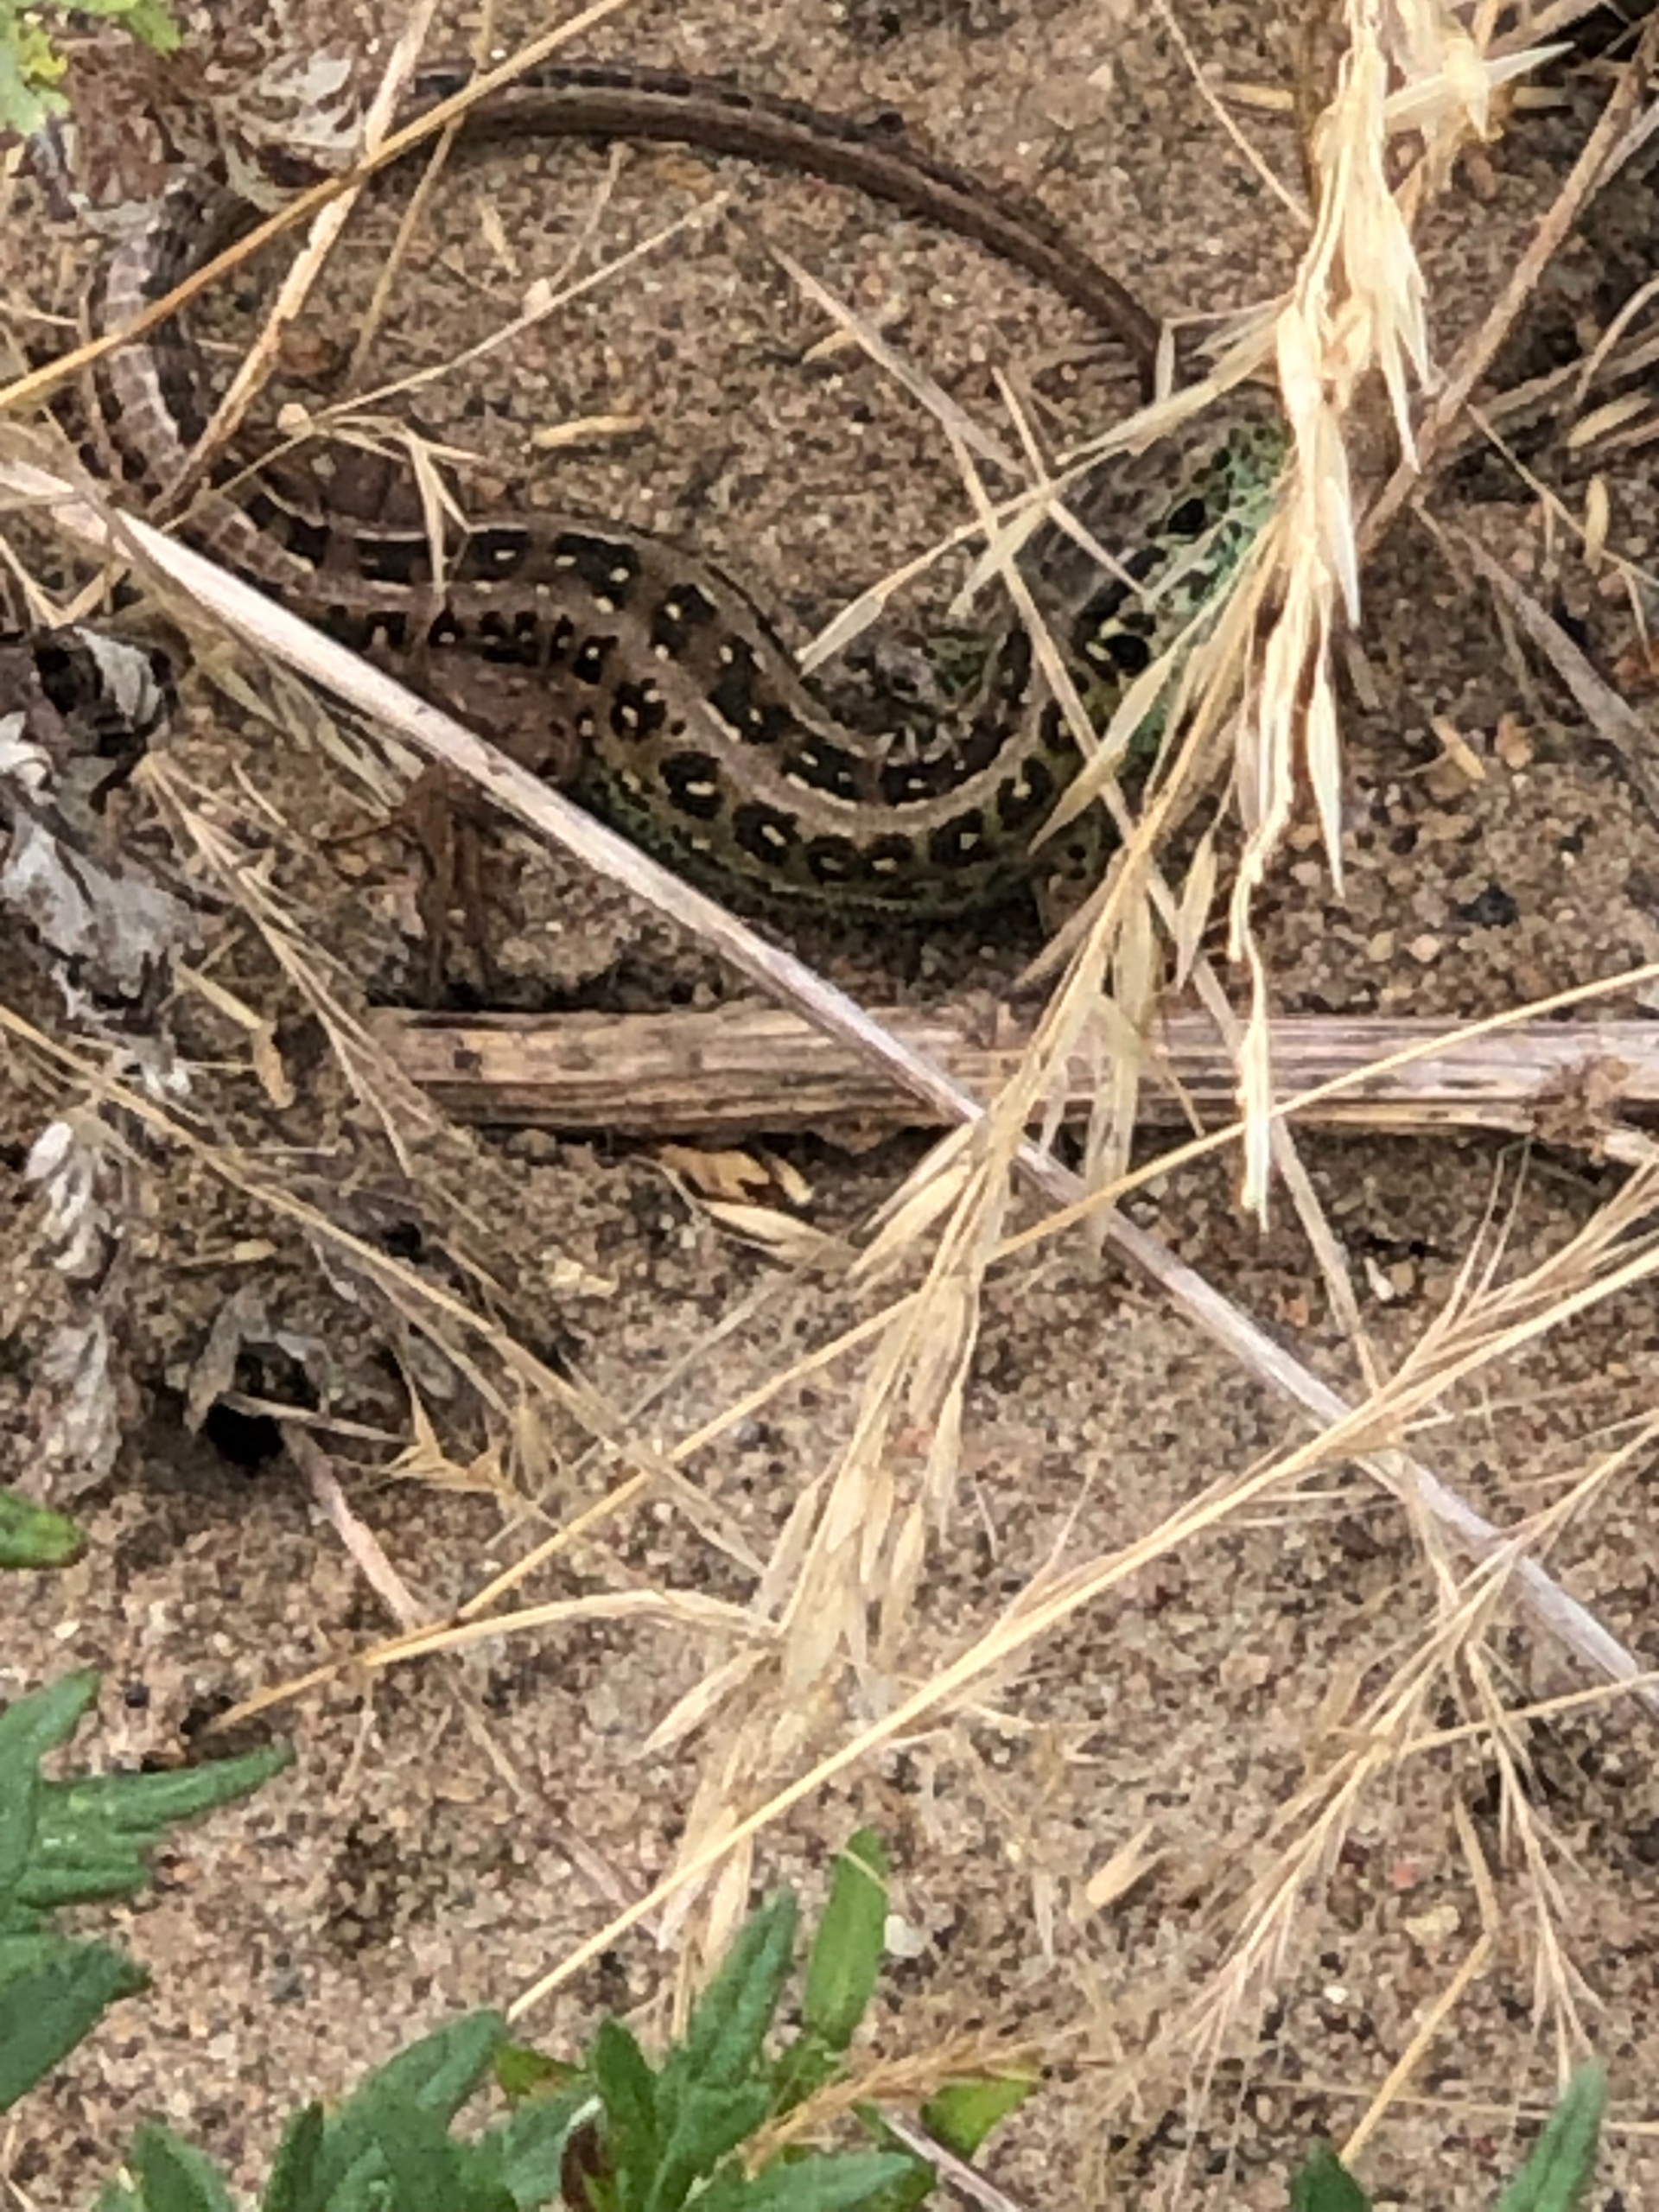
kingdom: Animalia
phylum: Chordata
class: Squamata
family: Lacertidae
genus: Lacerta
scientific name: Lacerta agilis
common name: Markfirben
